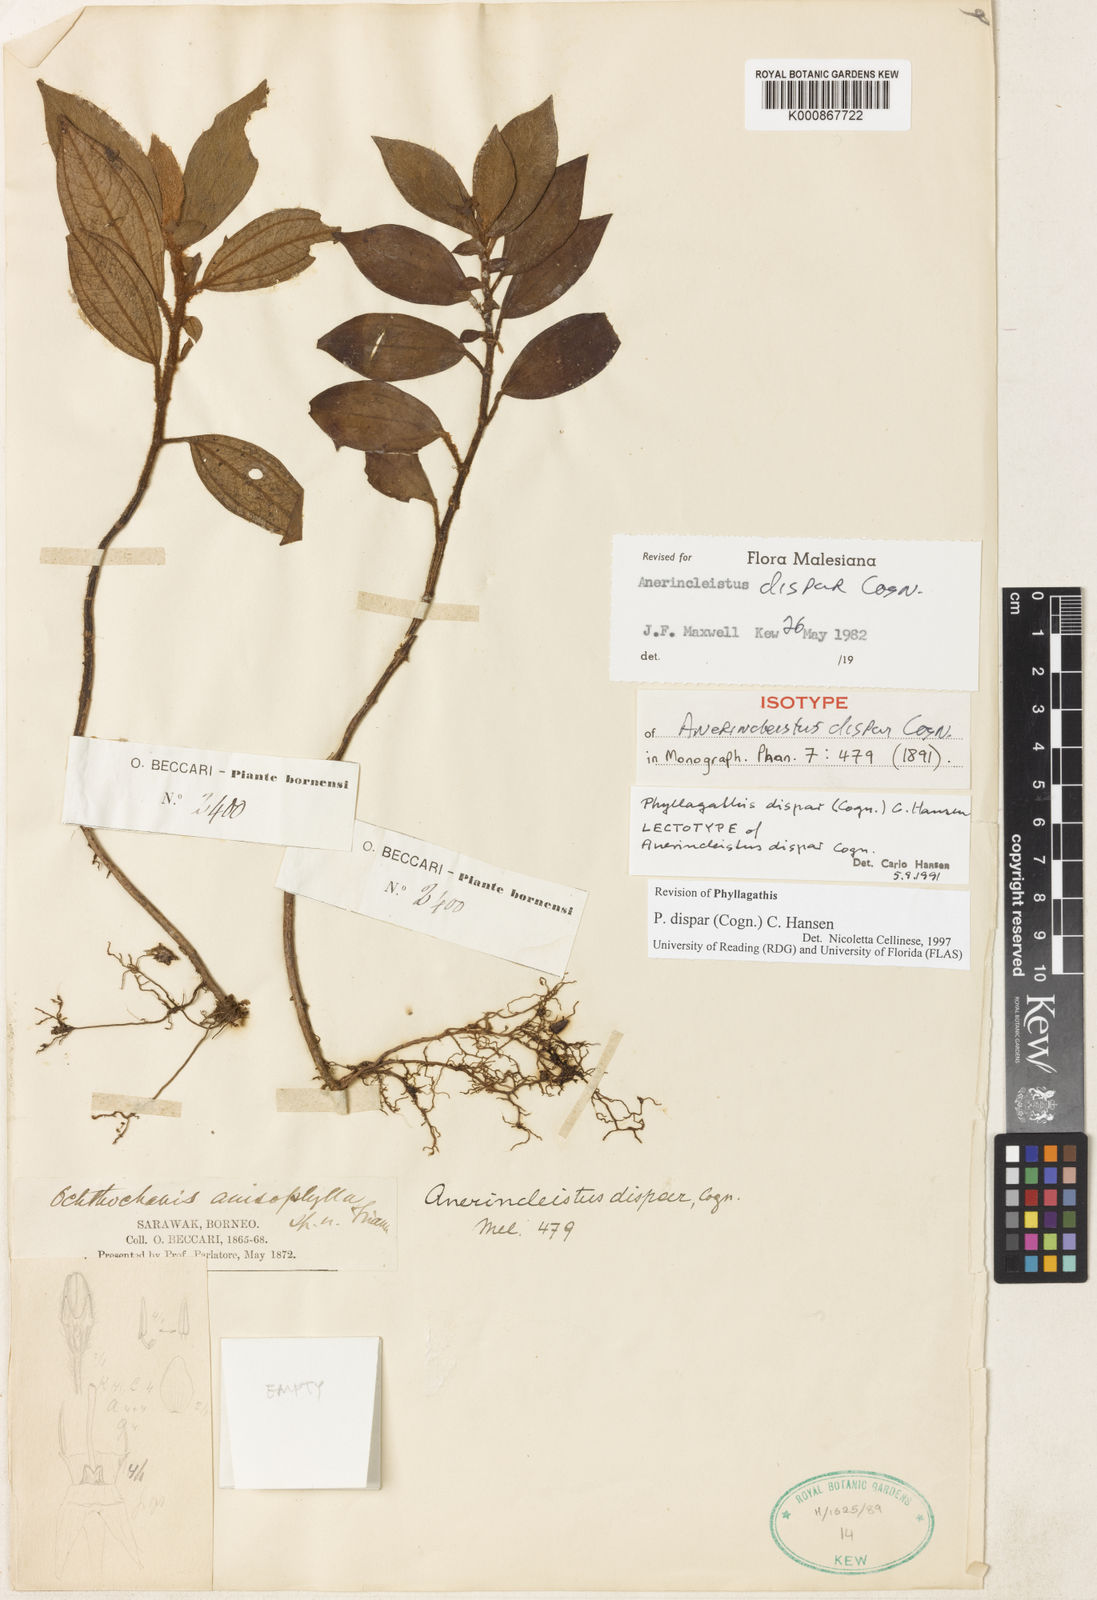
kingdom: Plantae
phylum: Tracheophyta
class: Magnoliopsida
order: Myrtales
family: Melastomataceae
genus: Anerincleistus
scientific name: Anerincleistus dispar
